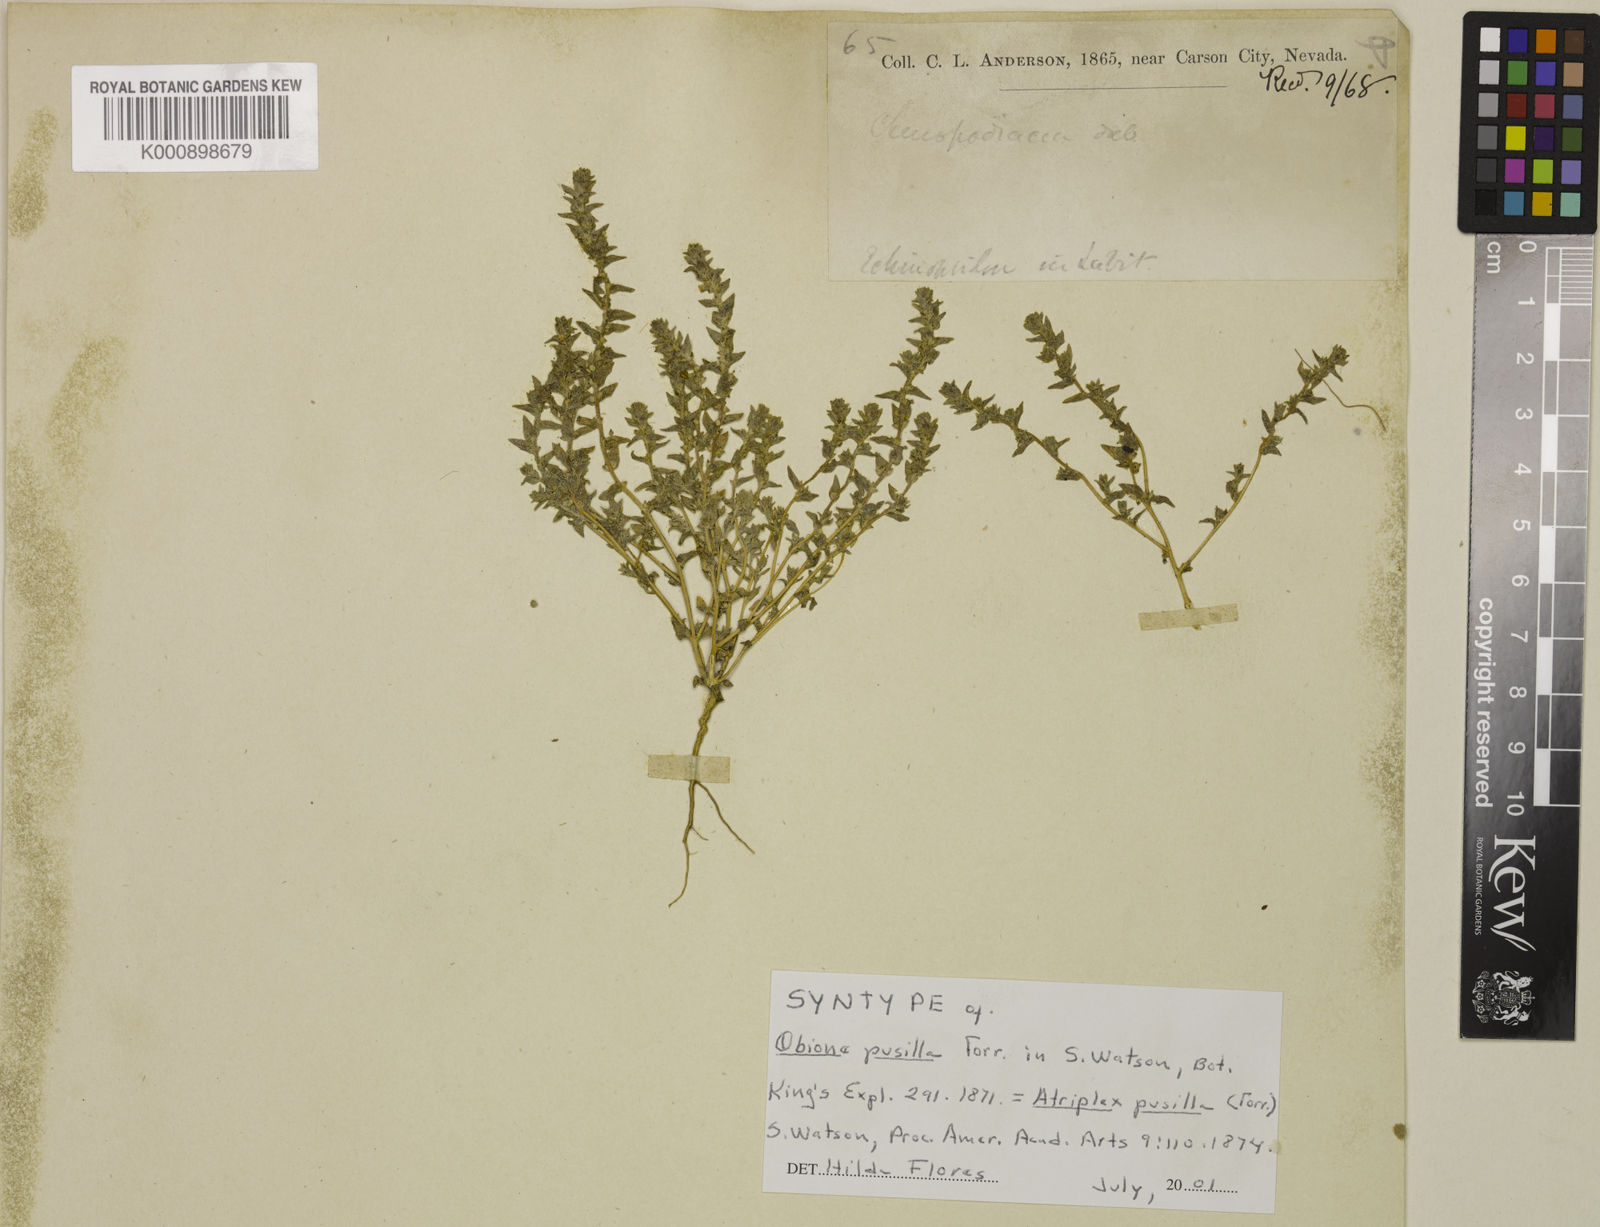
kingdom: Plantae
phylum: Tracheophyta
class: Magnoliopsida
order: Caryophyllales
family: Amaranthaceae
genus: Atriplex
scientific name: Atriplex Obione parvifolia
